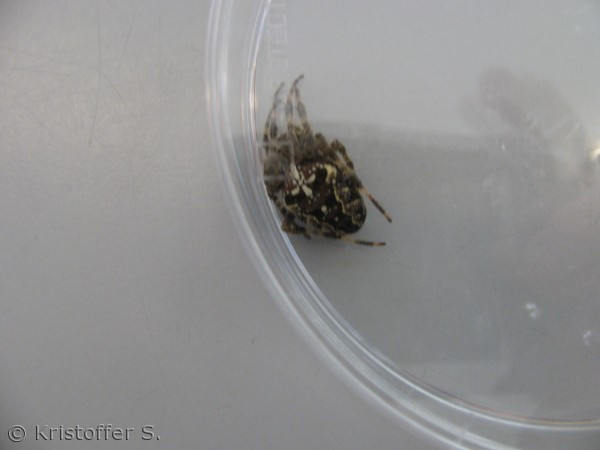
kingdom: Animalia
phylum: Arthropoda
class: Arachnida
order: Araneae
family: Araneidae
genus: Araneus
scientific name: Araneus diadematus
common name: Korsedderkop
